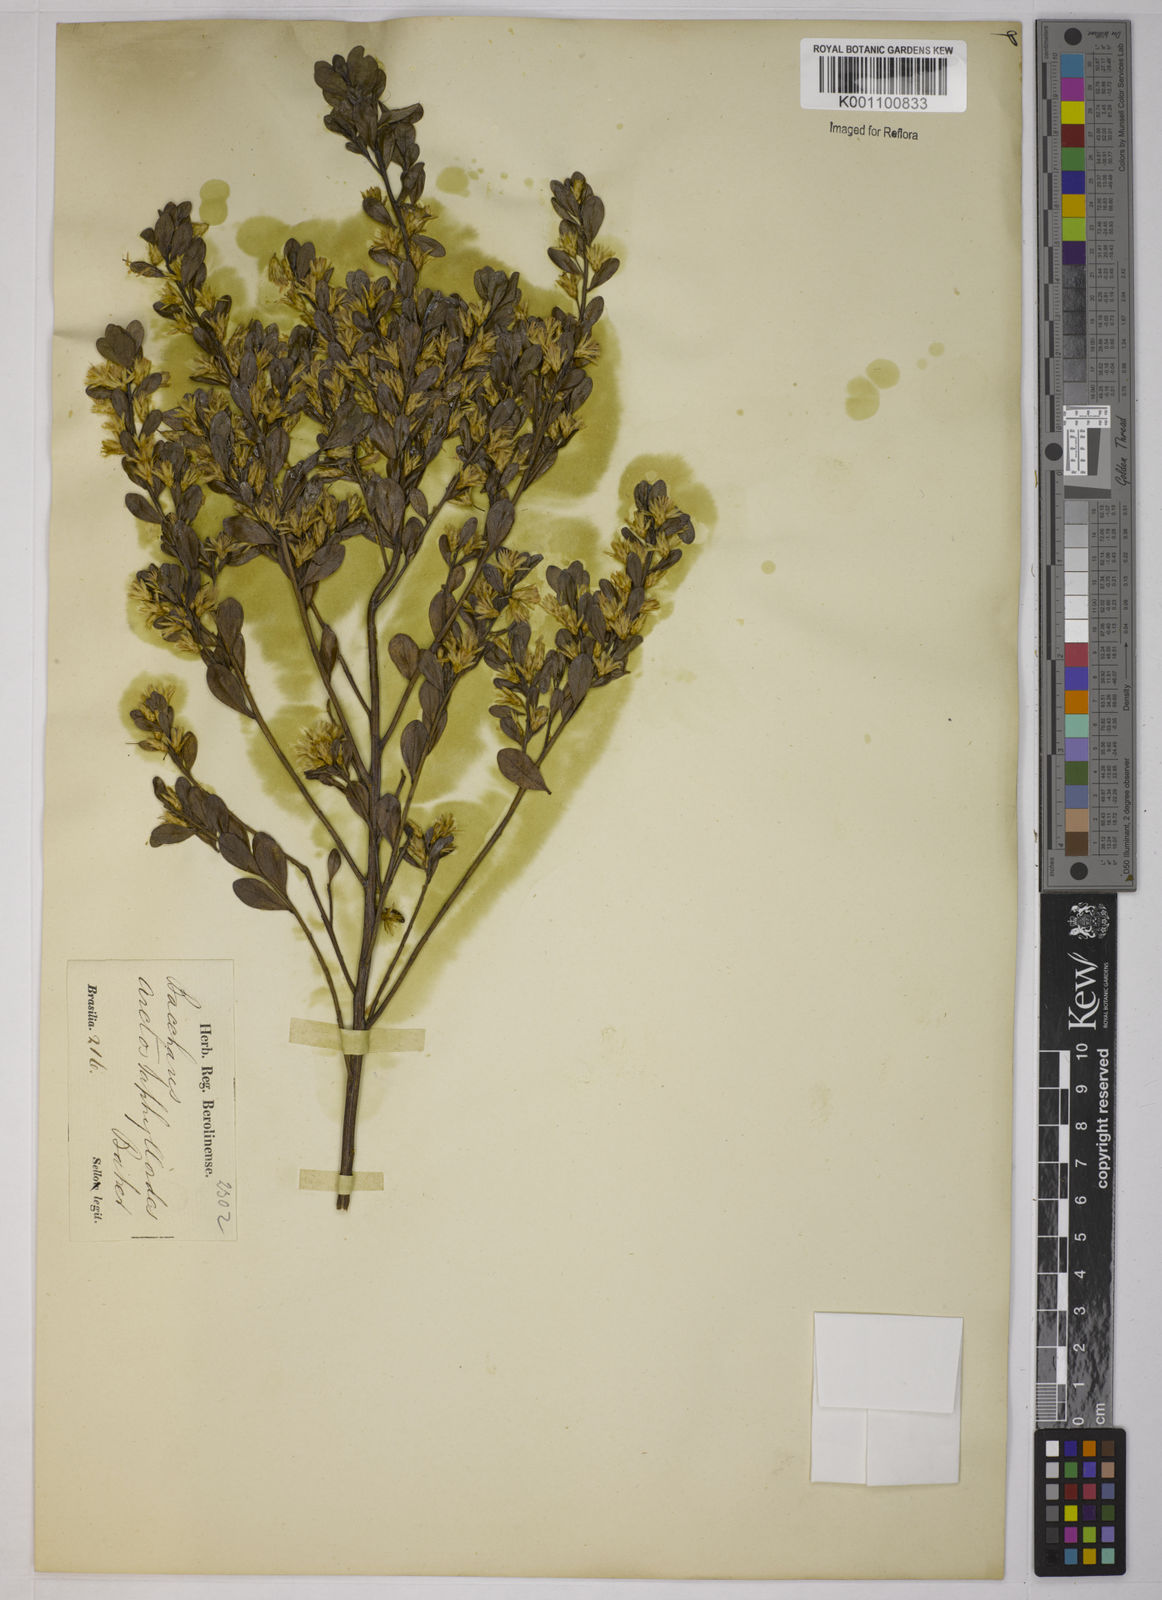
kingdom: Plantae
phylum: Tracheophyta
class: Magnoliopsida
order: Asterales
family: Asteraceae
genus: Baccharis
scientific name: Baccharis reticularia
